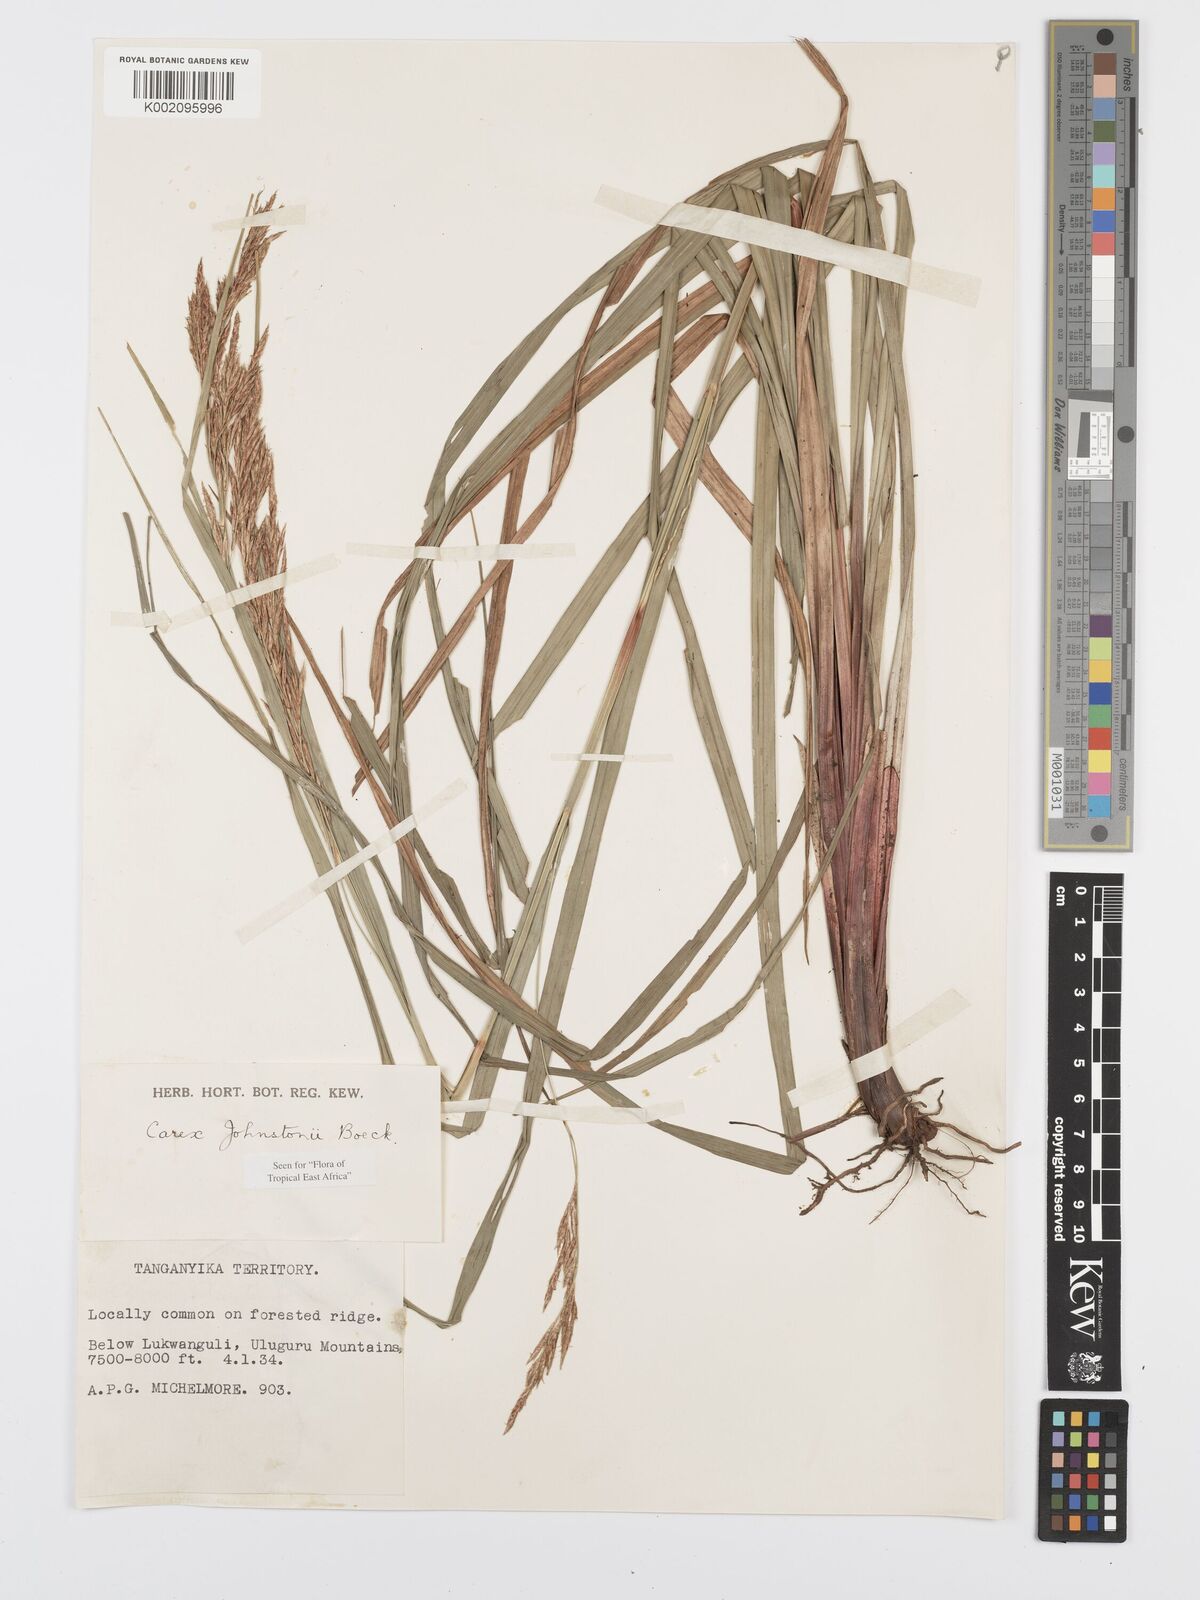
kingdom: Plantae
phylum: Tracheophyta
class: Liliopsida
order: Poales
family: Cyperaceae
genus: Carex
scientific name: Carex johnstonii
